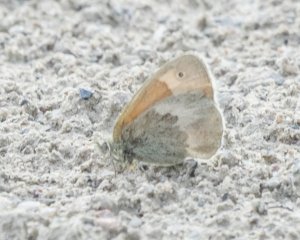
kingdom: Animalia
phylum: Arthropoda
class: Insecta
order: Lepidoptera
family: Nymphalidae
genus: Coenonympha
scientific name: Coenonympha tullia
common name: Large Heath
